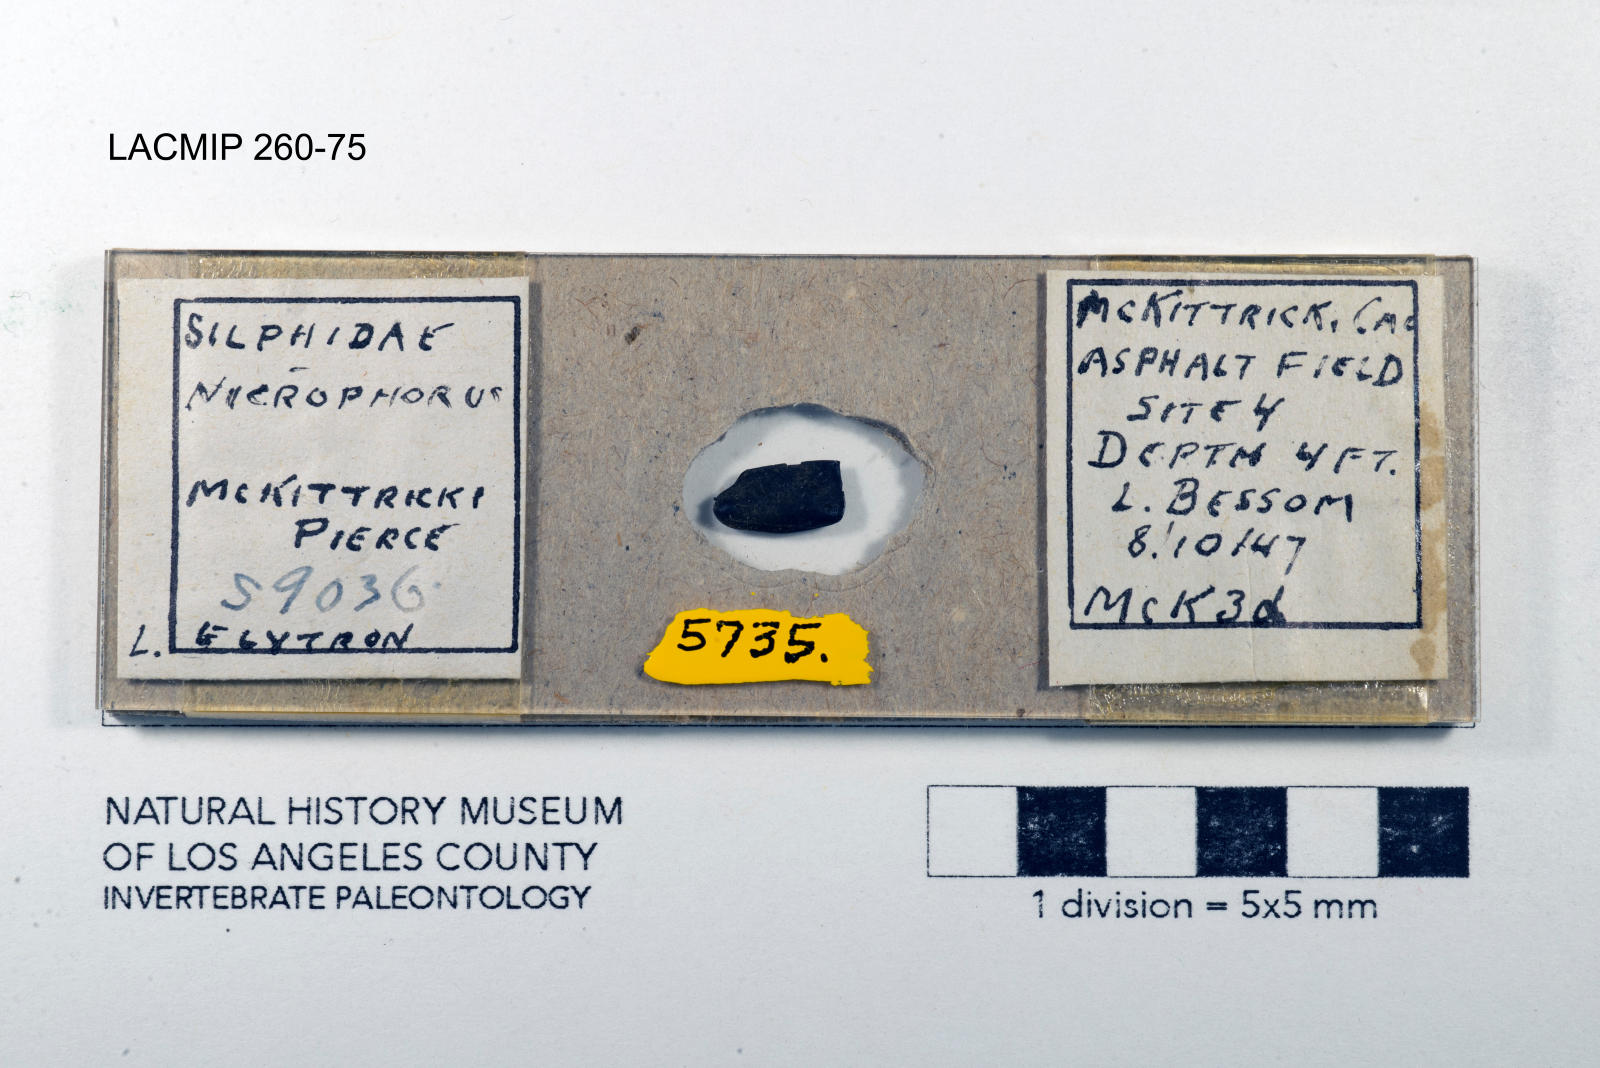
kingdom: Animalia
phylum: Arthropoda
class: Insecta
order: Coleoptera
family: Staphylinidae
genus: Nicrophorus
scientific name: Nicrophorus marginatus
